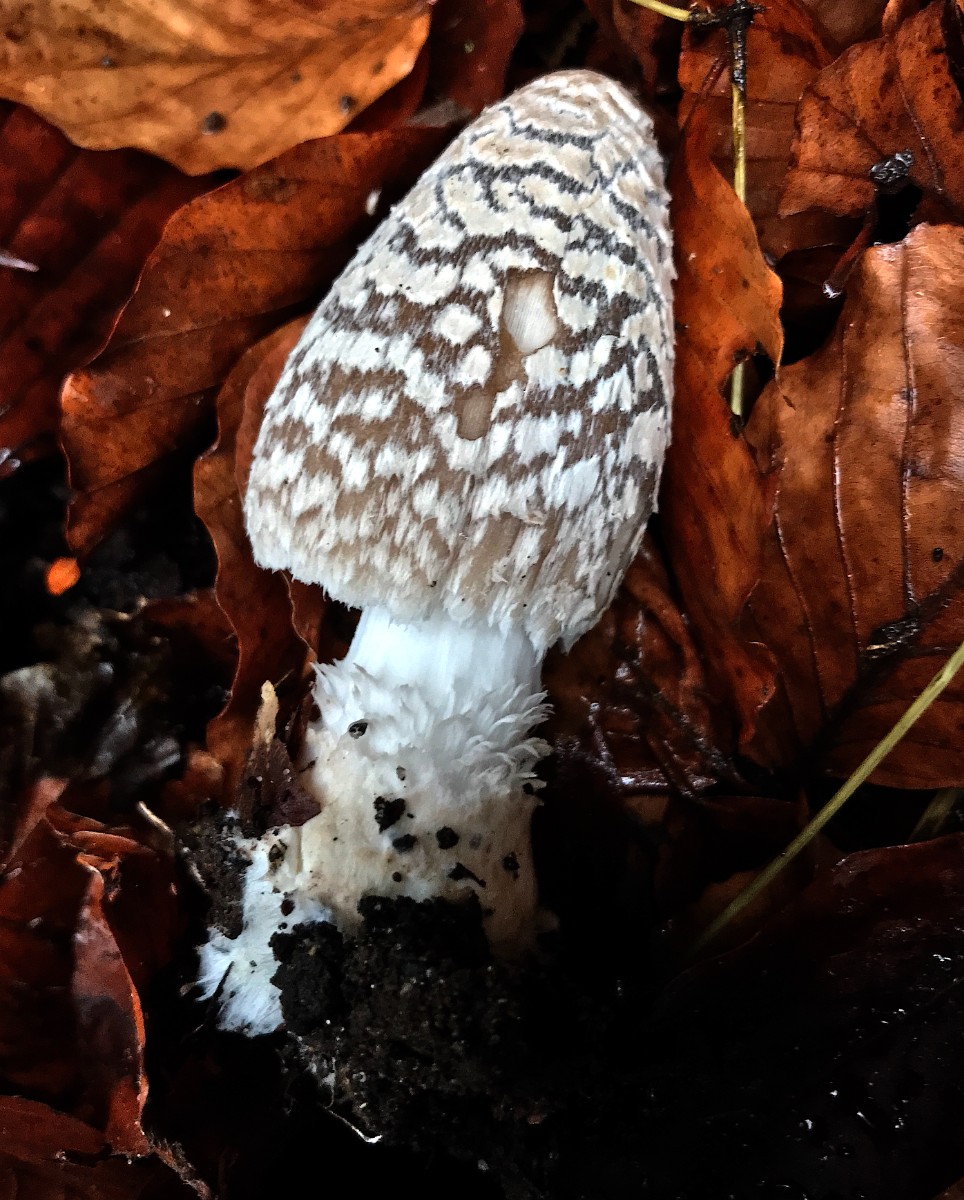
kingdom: Fungi
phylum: Basidiomycota
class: Agaricomycetes
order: Agaricales
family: Psathyrellaceae
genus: Coprinopsis
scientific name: Coprinopsis picacea
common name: skade-blækhat
